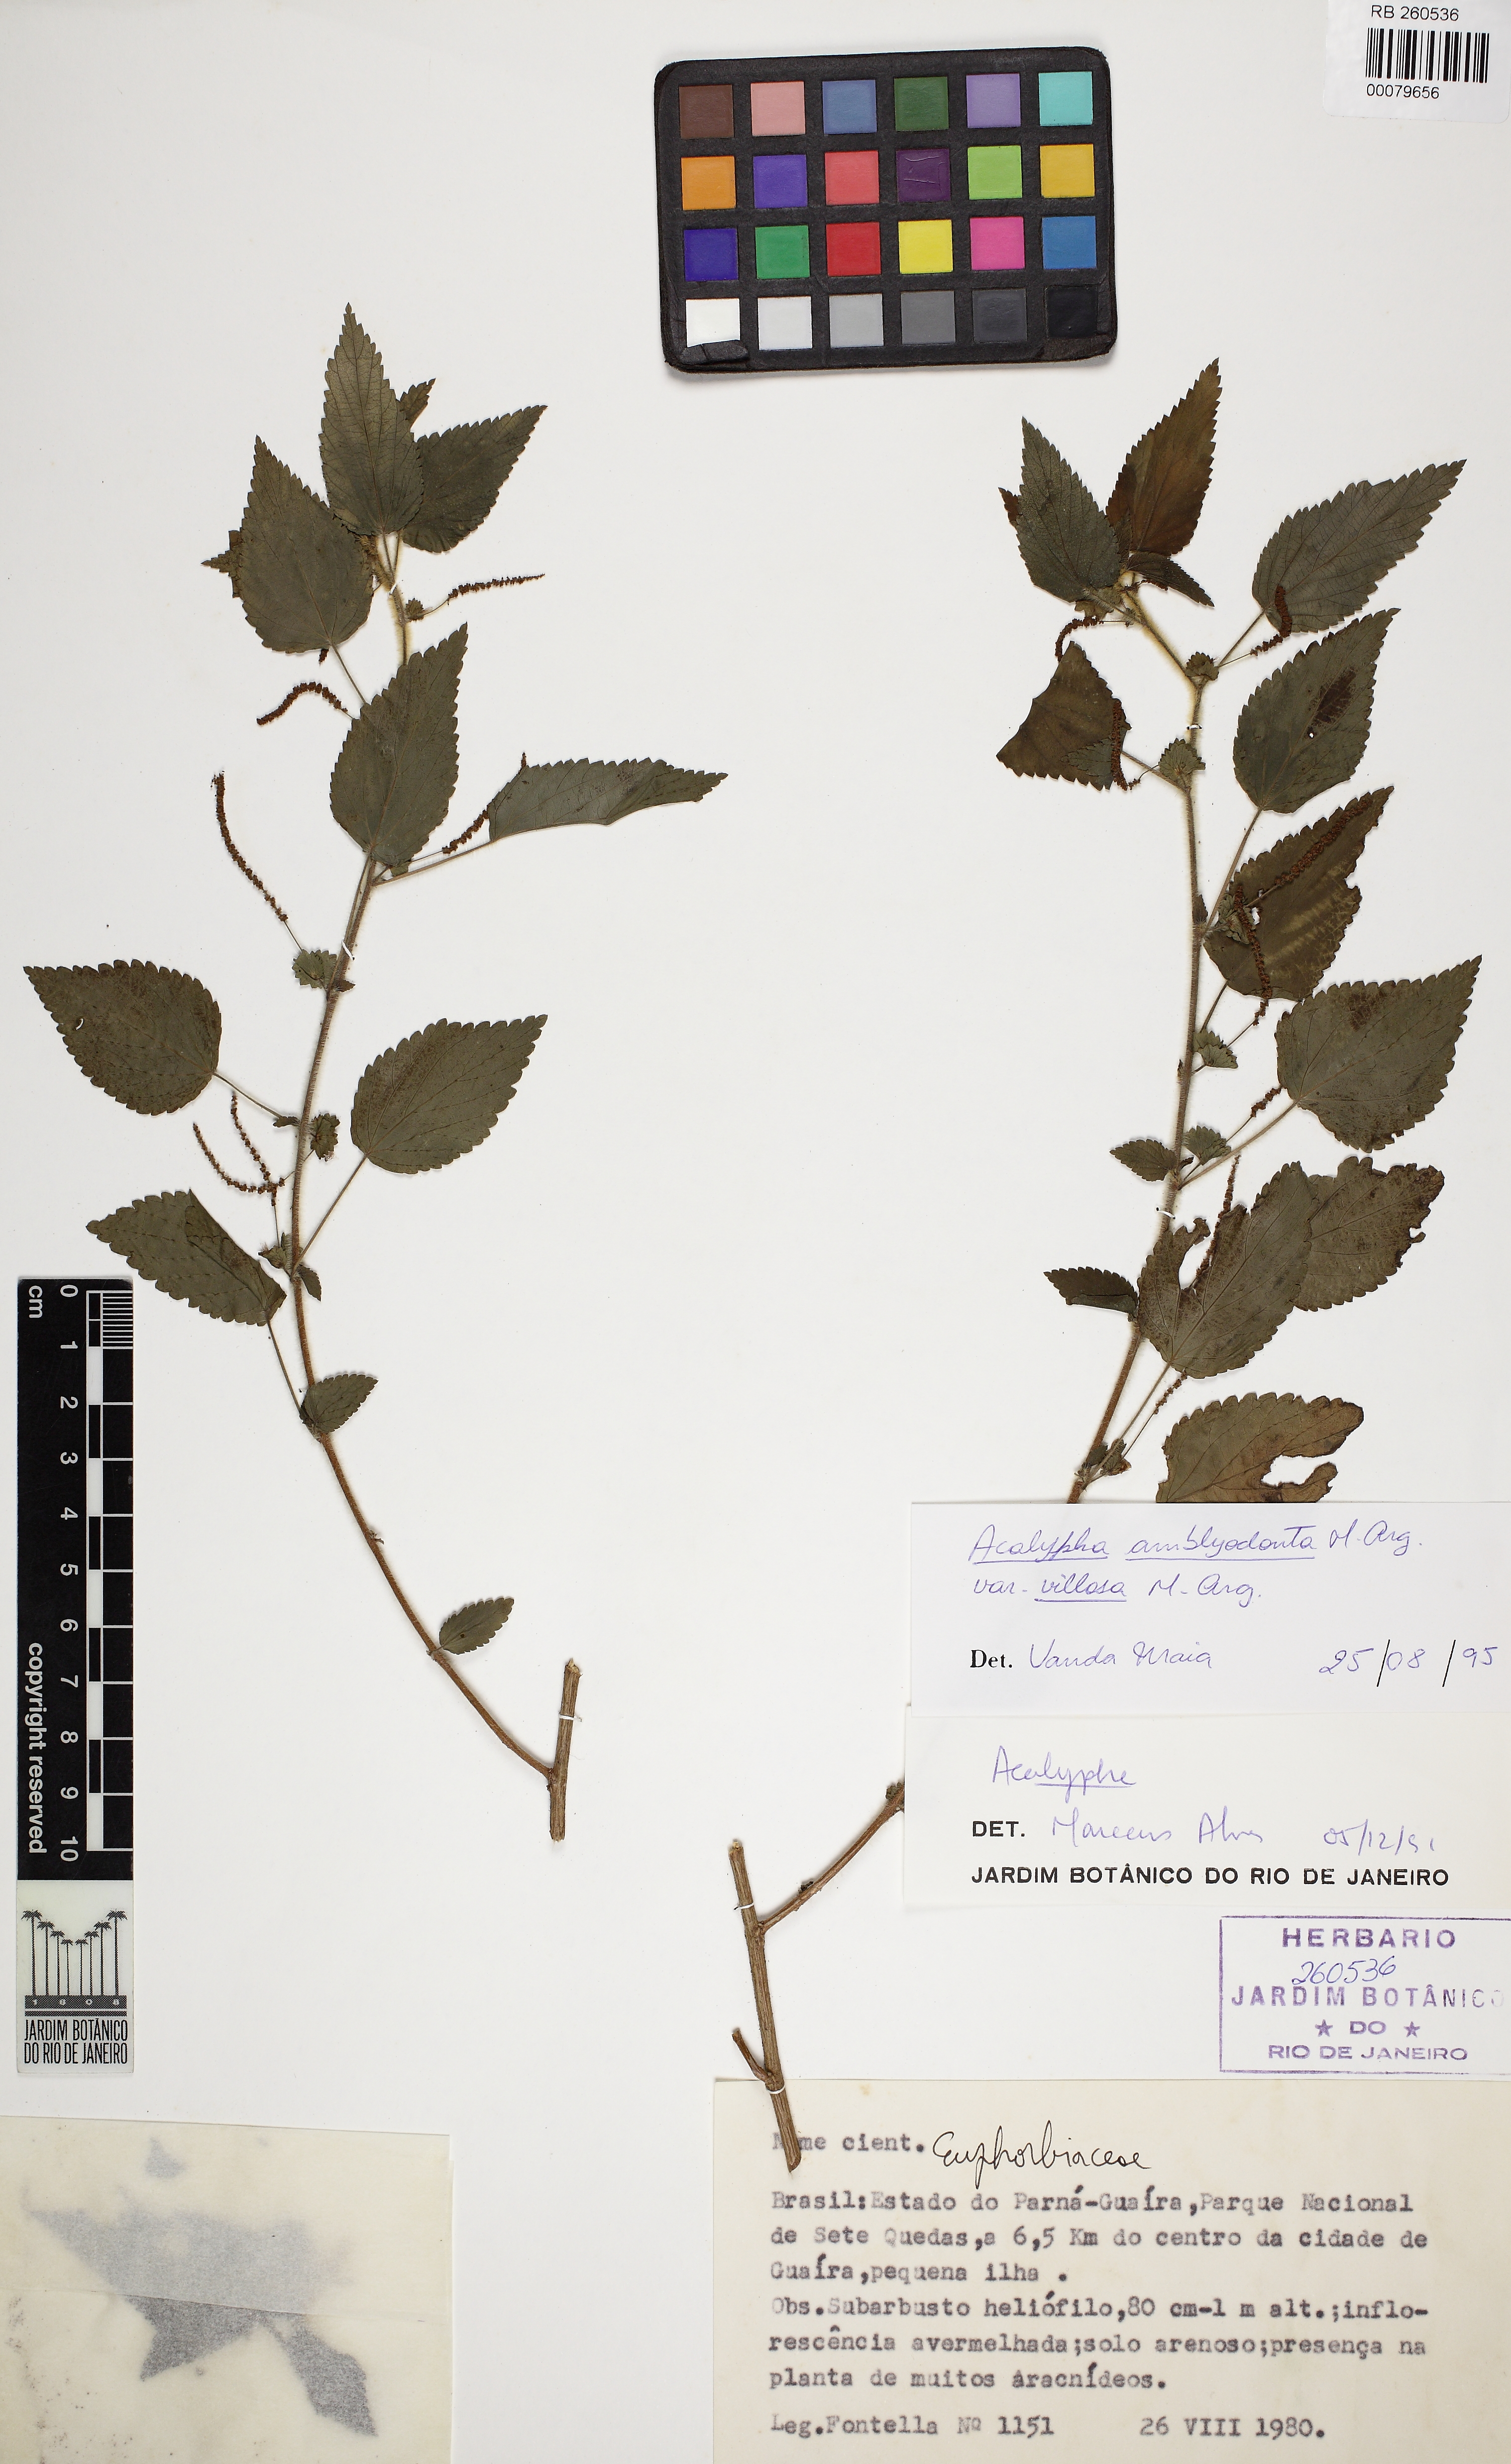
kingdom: Plantae
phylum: Tracheophyta
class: Magnoliopsida
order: Malpighiales
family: Euphorbiaceae
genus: Acalypha
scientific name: Acalypha amblyodonta
